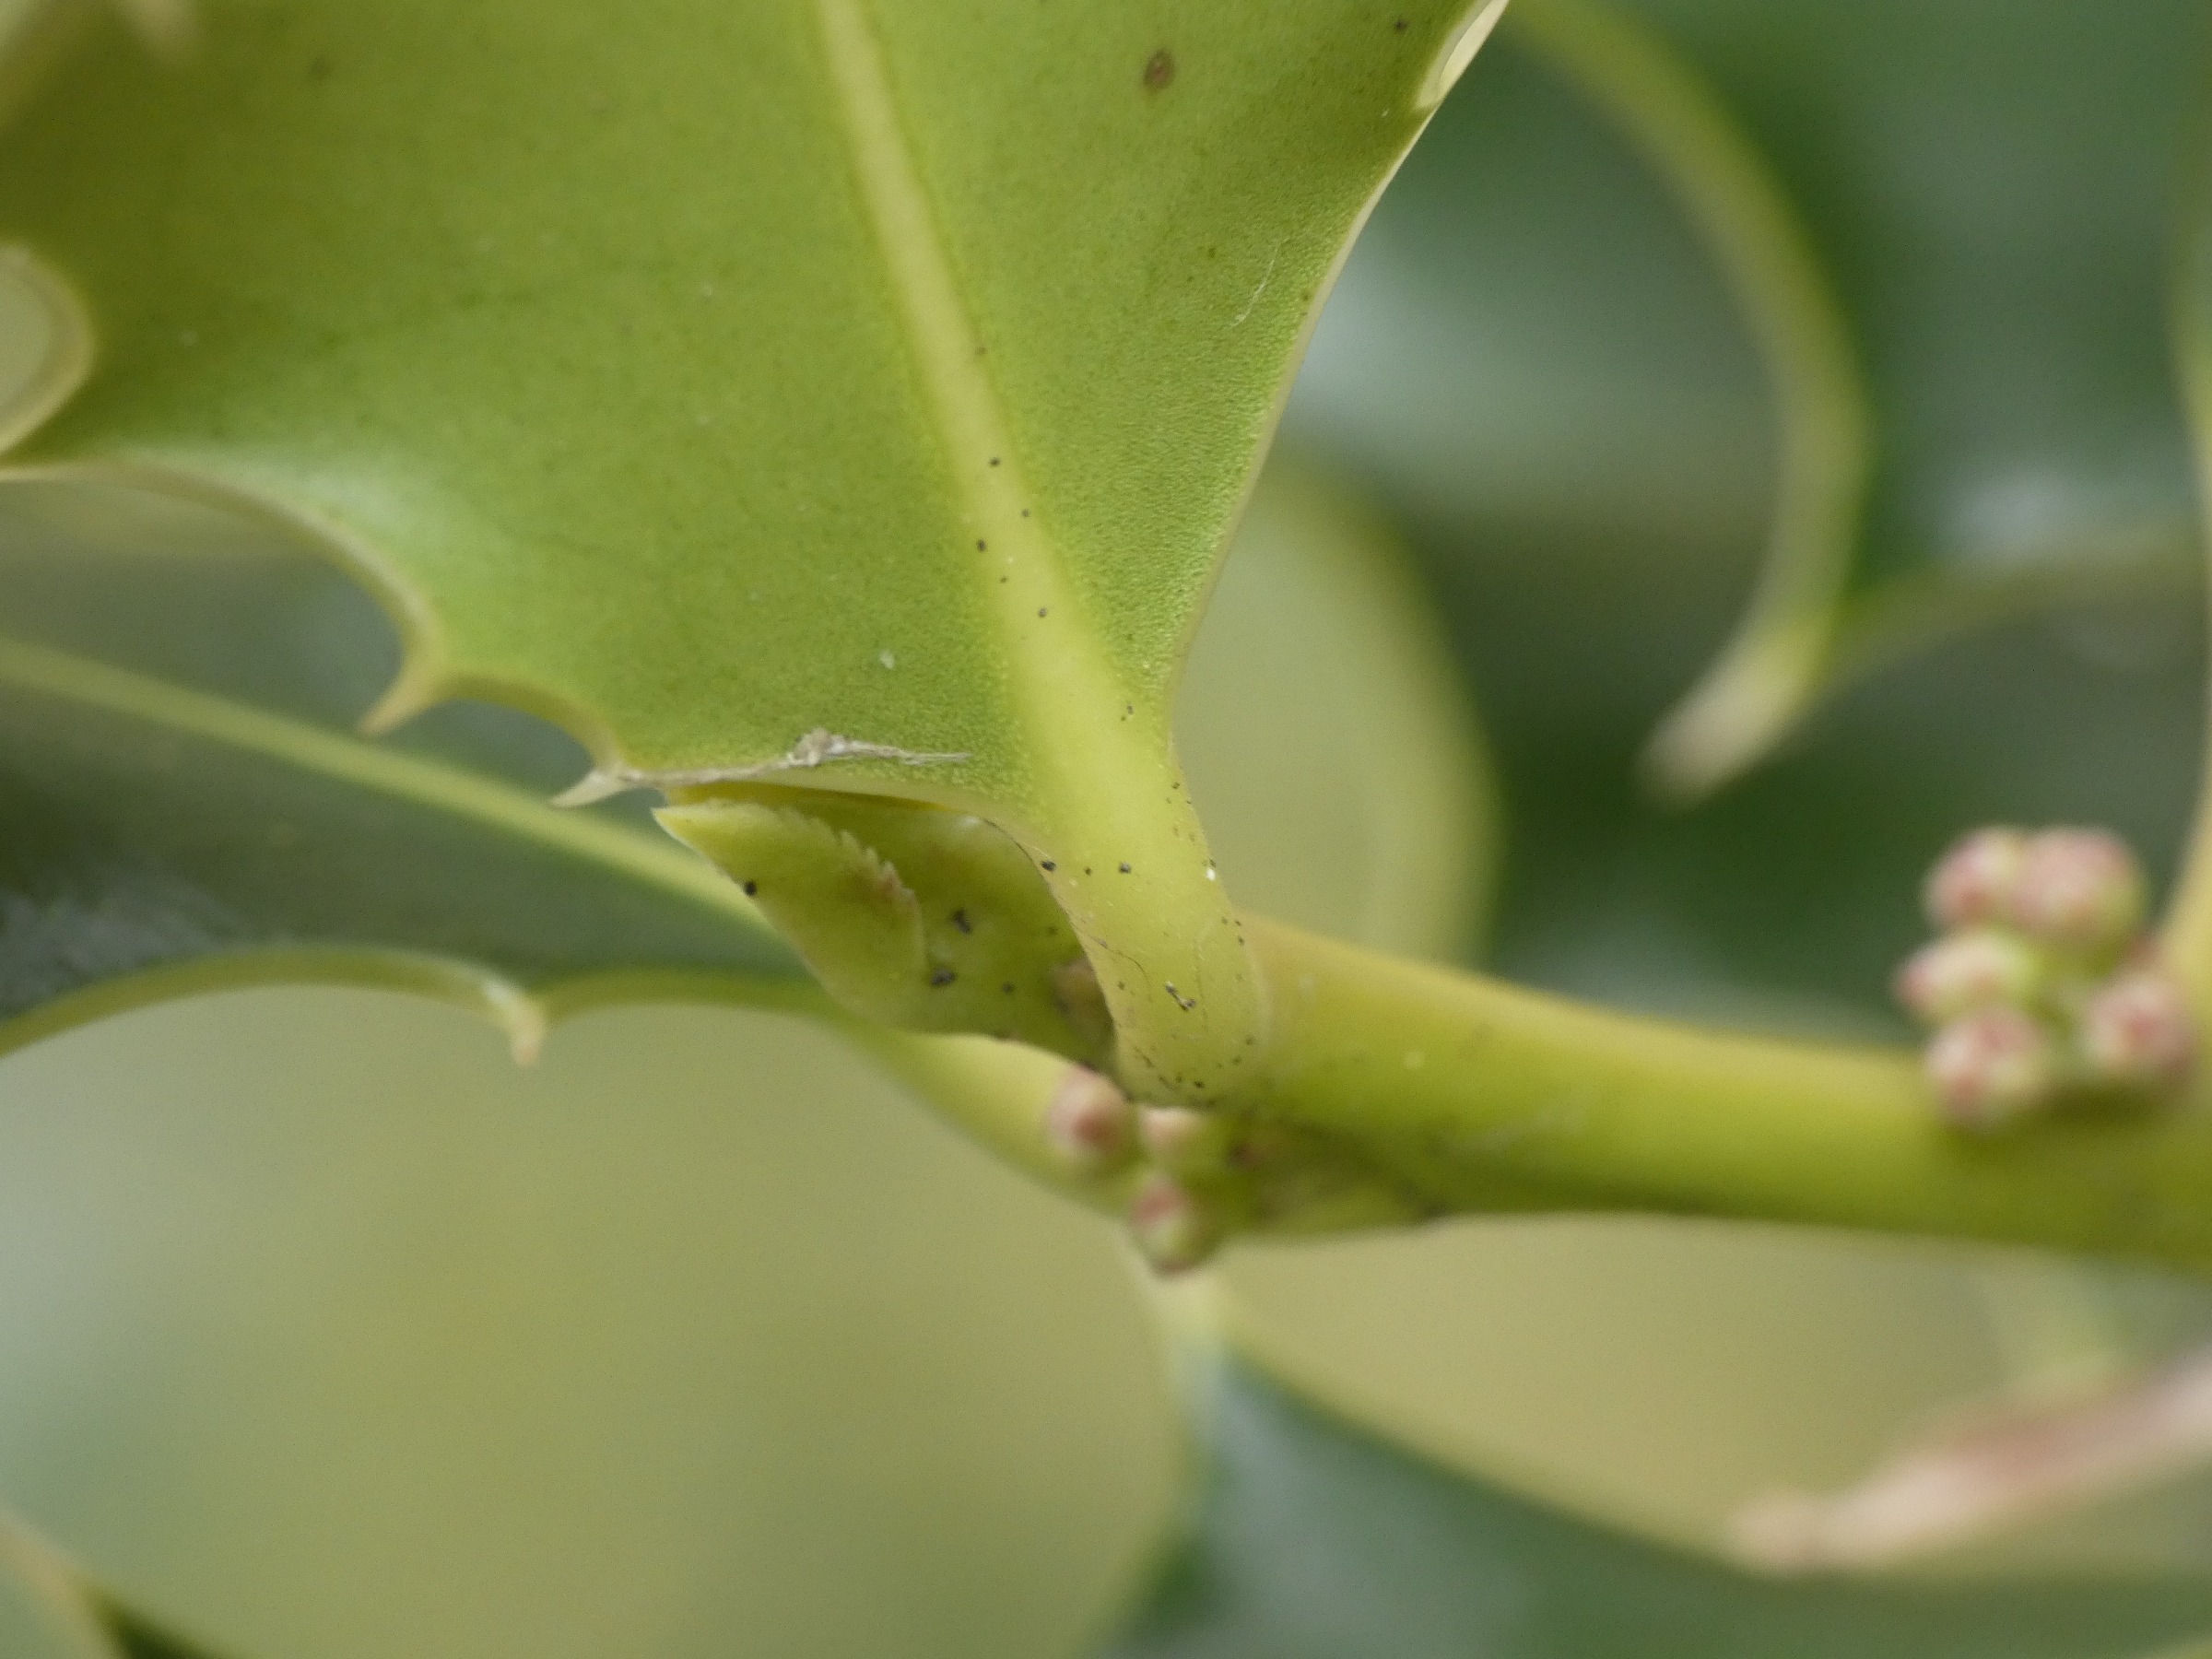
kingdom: Plantae
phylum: Tracheophyta
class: Magnoliopsida
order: Aquifoliales
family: Aquifoliaceae
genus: Ilex
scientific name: Ilex aquifolium
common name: Kristtorn
